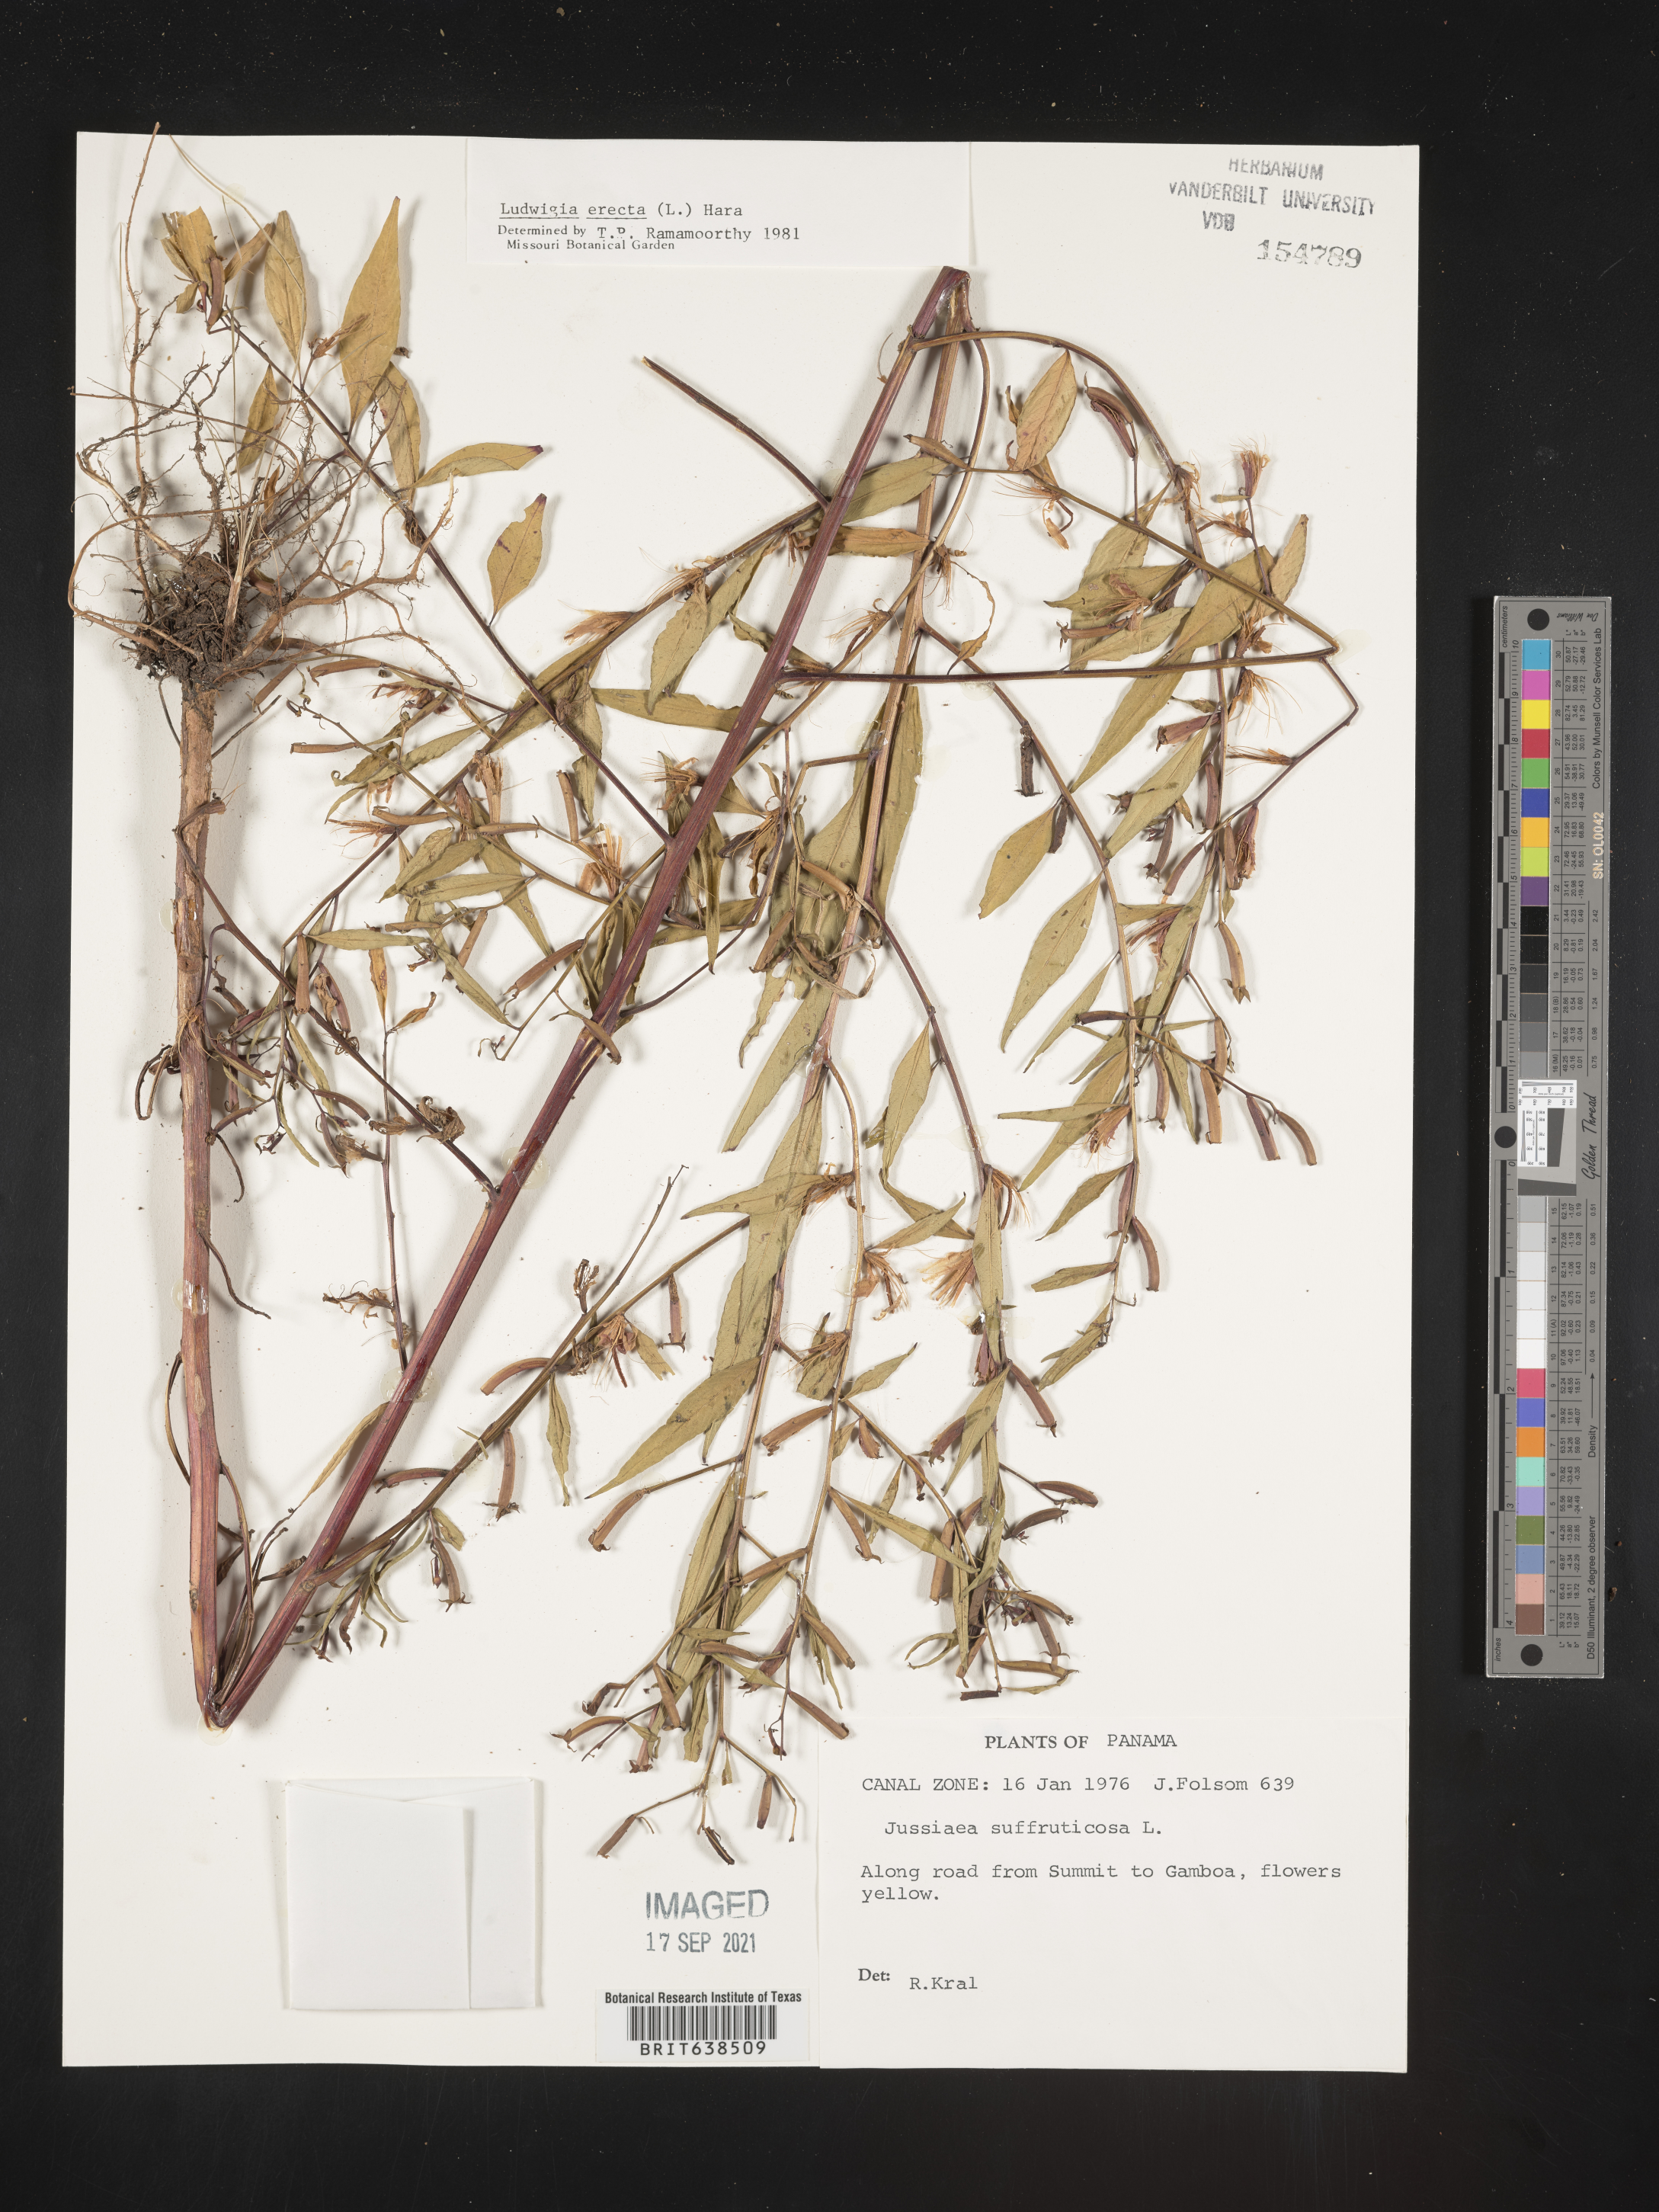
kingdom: Plantae
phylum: Tracheophyta
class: Magnoliopsida
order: Myrtales
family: Onagraceae
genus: Ludwigia
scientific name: Ludwigia
